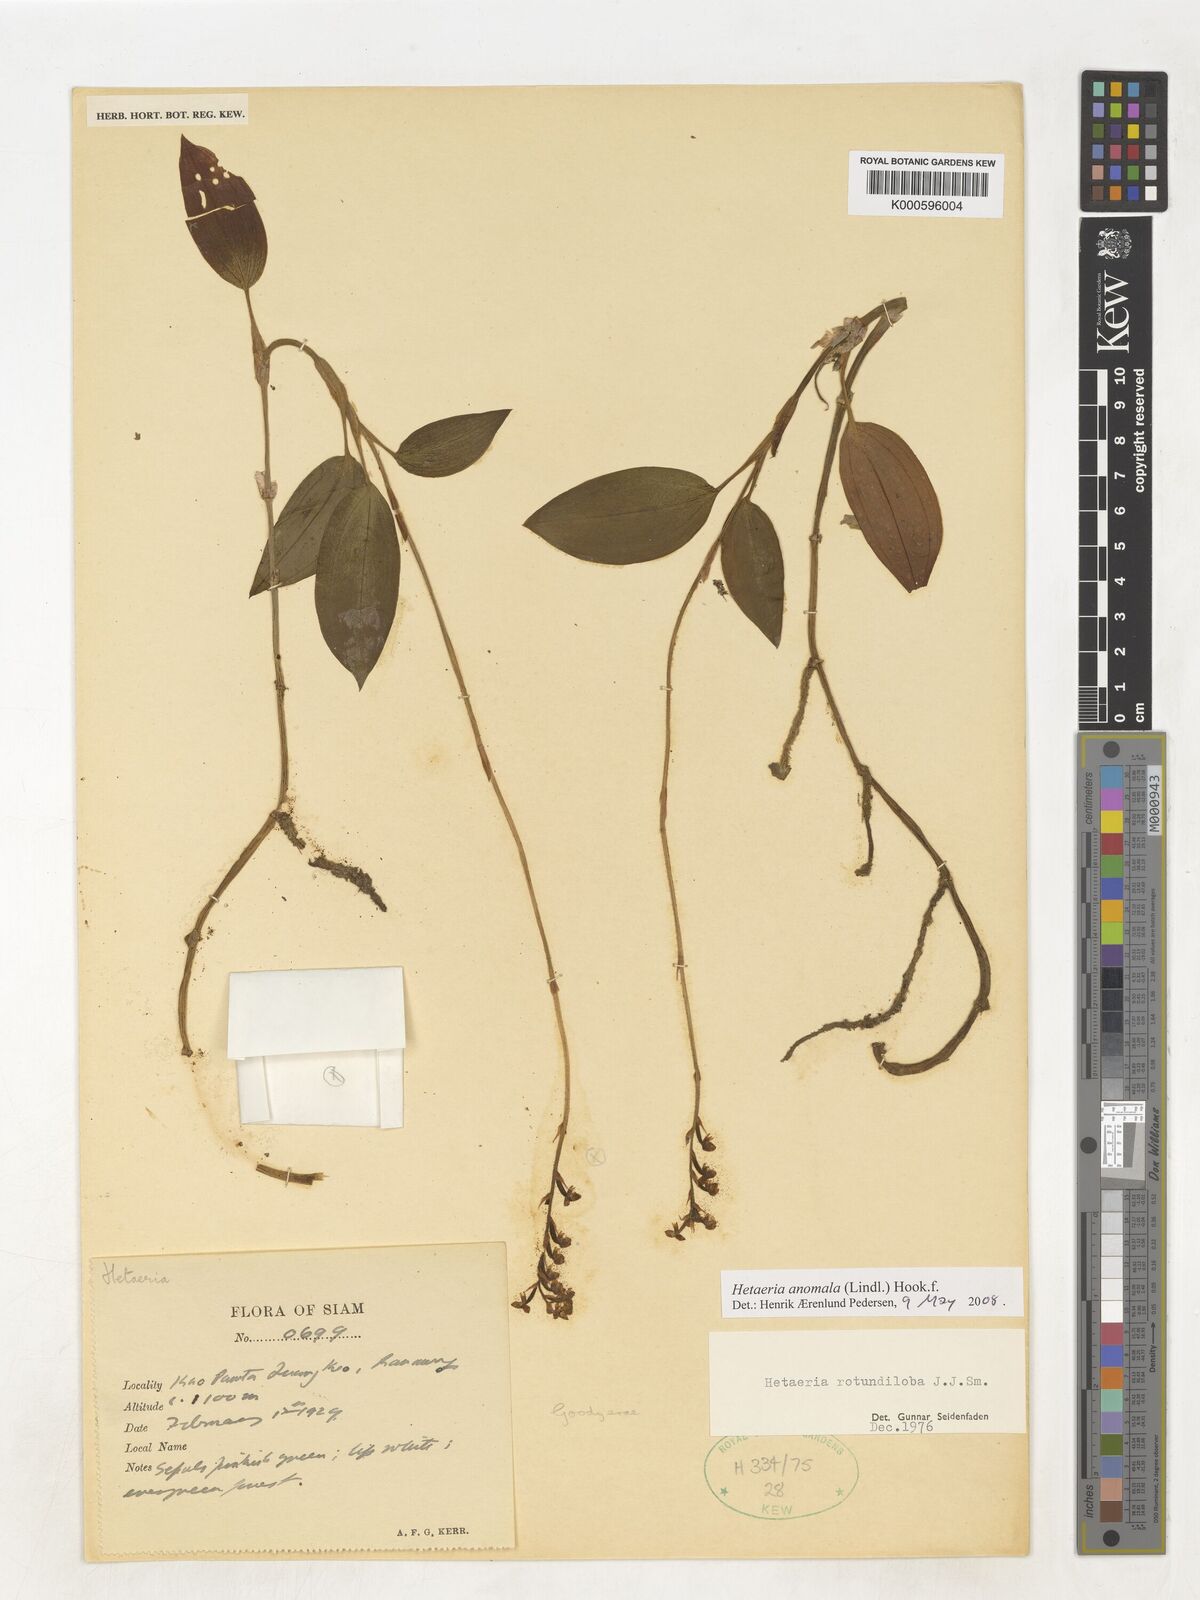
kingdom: Plantae
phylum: Tracheophyta
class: Liliopsida
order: Asparagales
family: Orchidaceae
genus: Hetaeria
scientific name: Hetaeria
